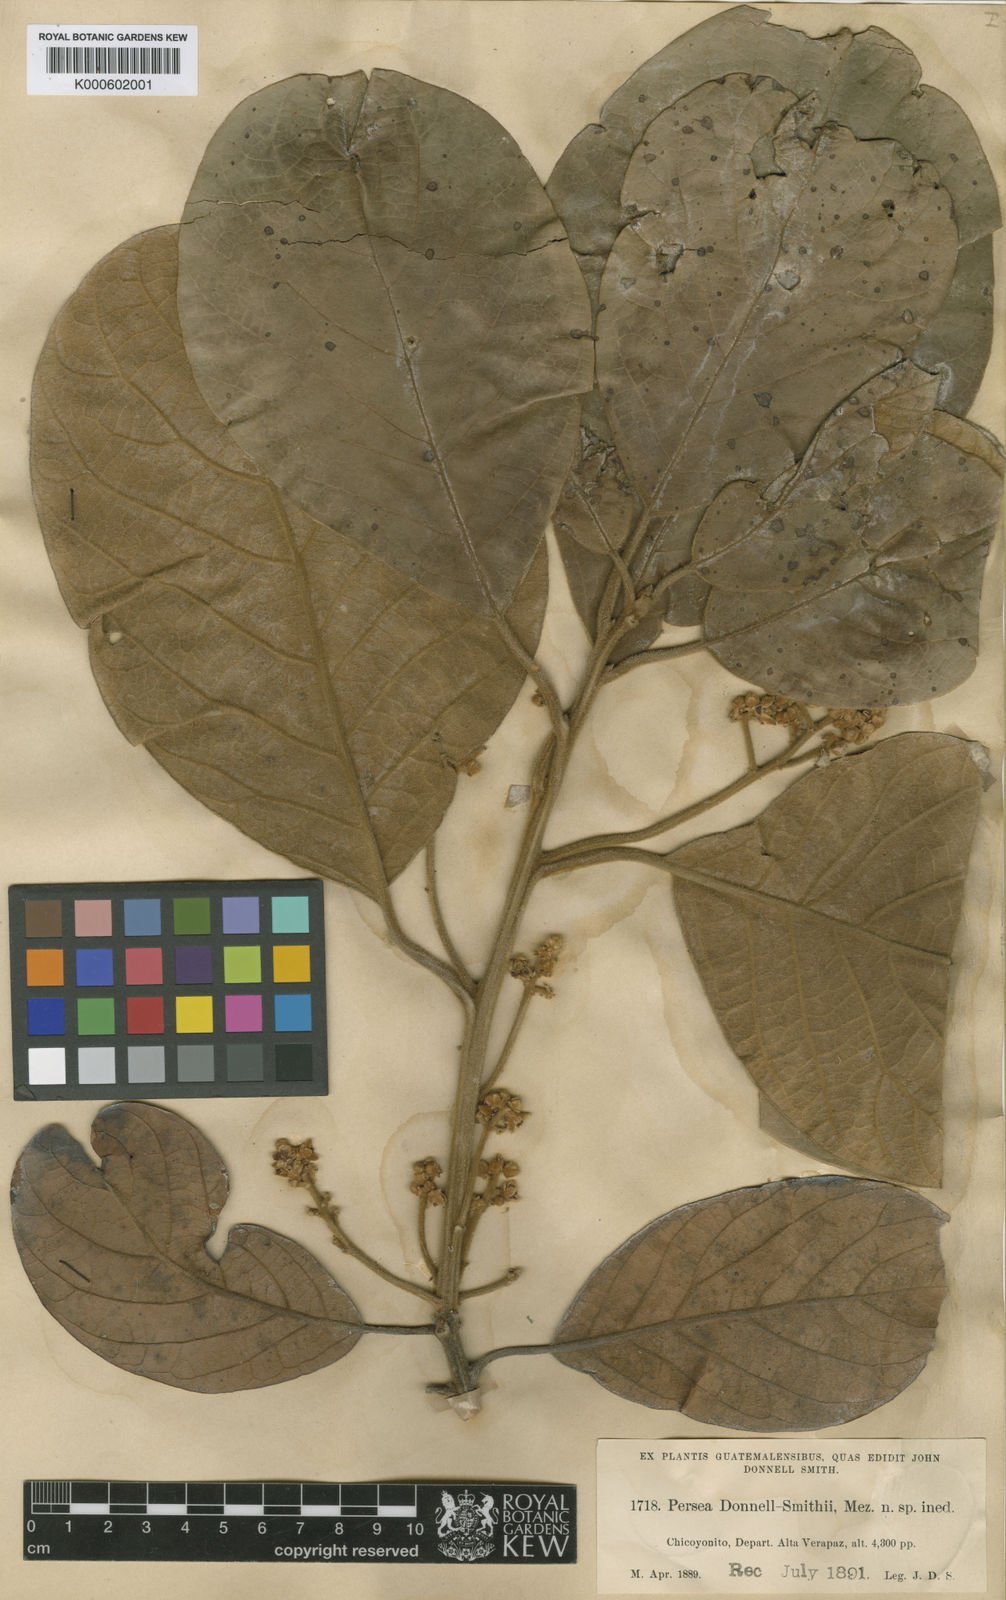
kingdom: Plantae
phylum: Tracheophyta
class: Magnoliopsida
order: Laurales
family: Lauraceae
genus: Persea
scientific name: Persea donnell-smithii
